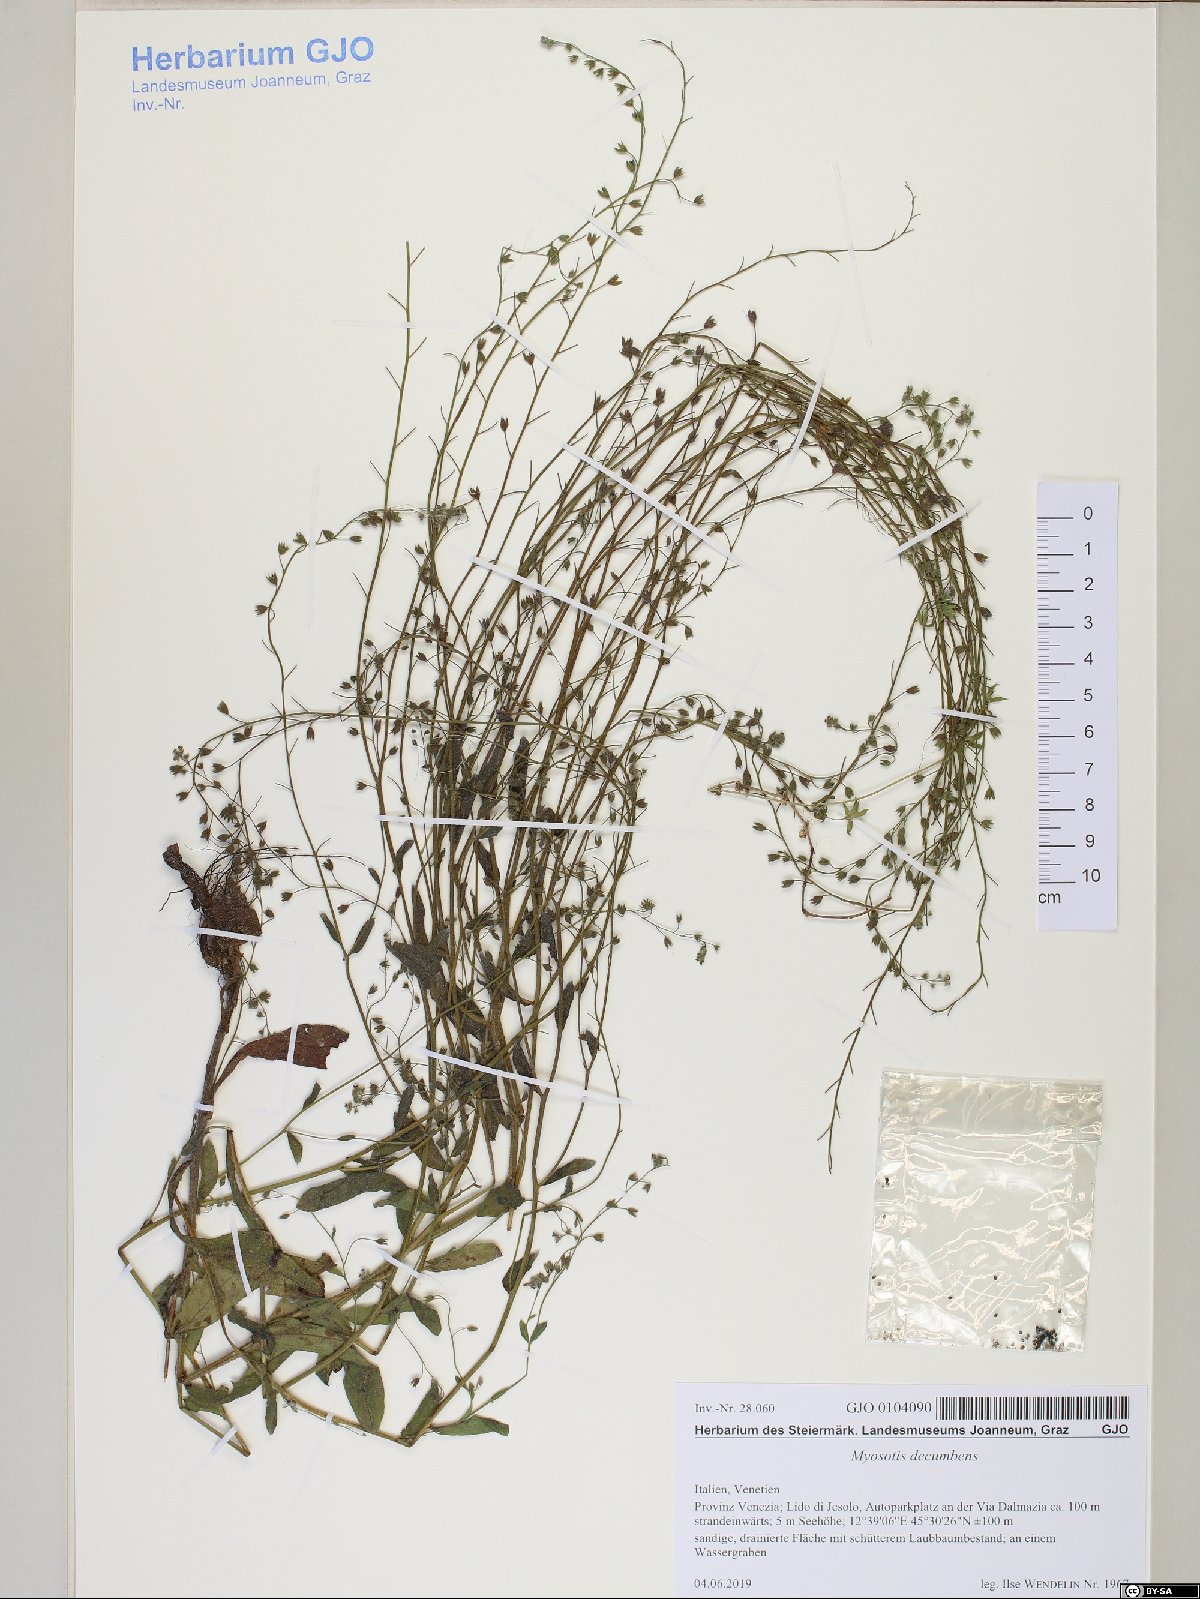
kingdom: Plantae
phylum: Tracheophyta
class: Magnoliopsida
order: Boraginales
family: Boraginaceae
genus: Myosotis
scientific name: Myosotis decumbens
